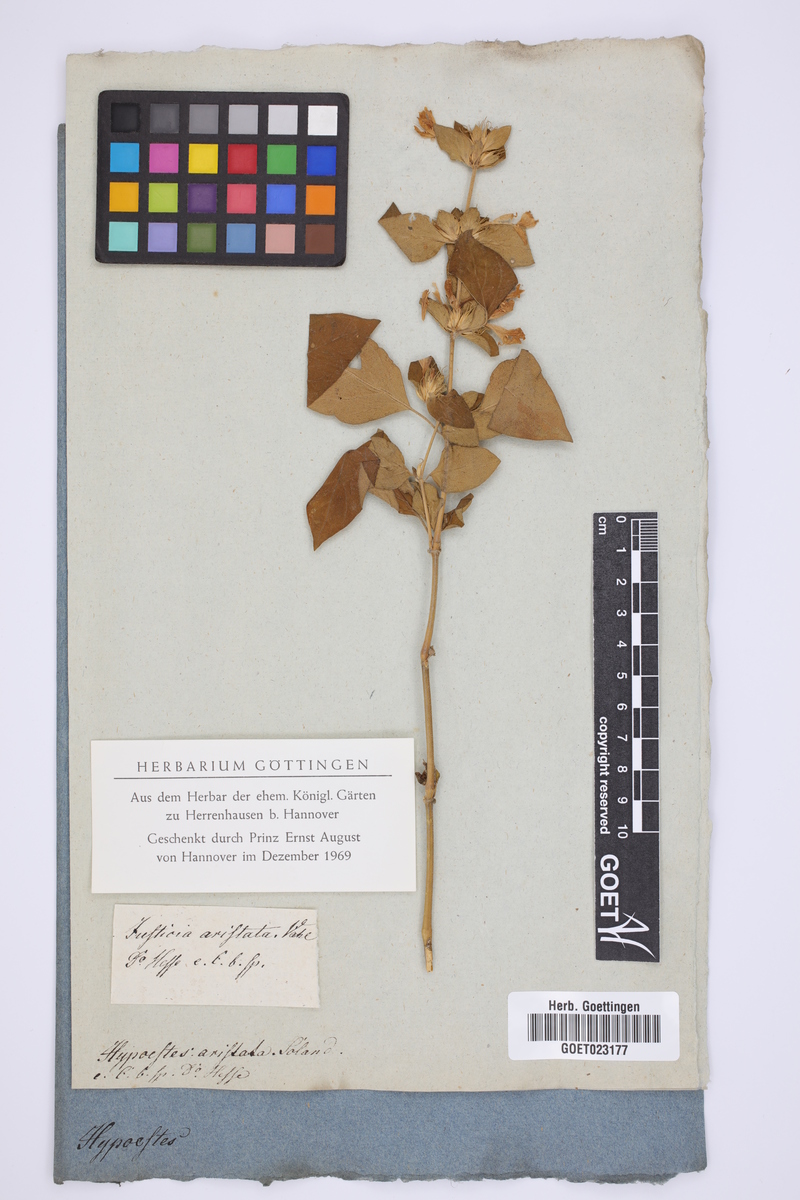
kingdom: Plantae
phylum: Tracheophyta
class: Magnoliopsida
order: Lamiales
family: Acanthaceae
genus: Hypoestes
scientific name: Hypoestes aristata
